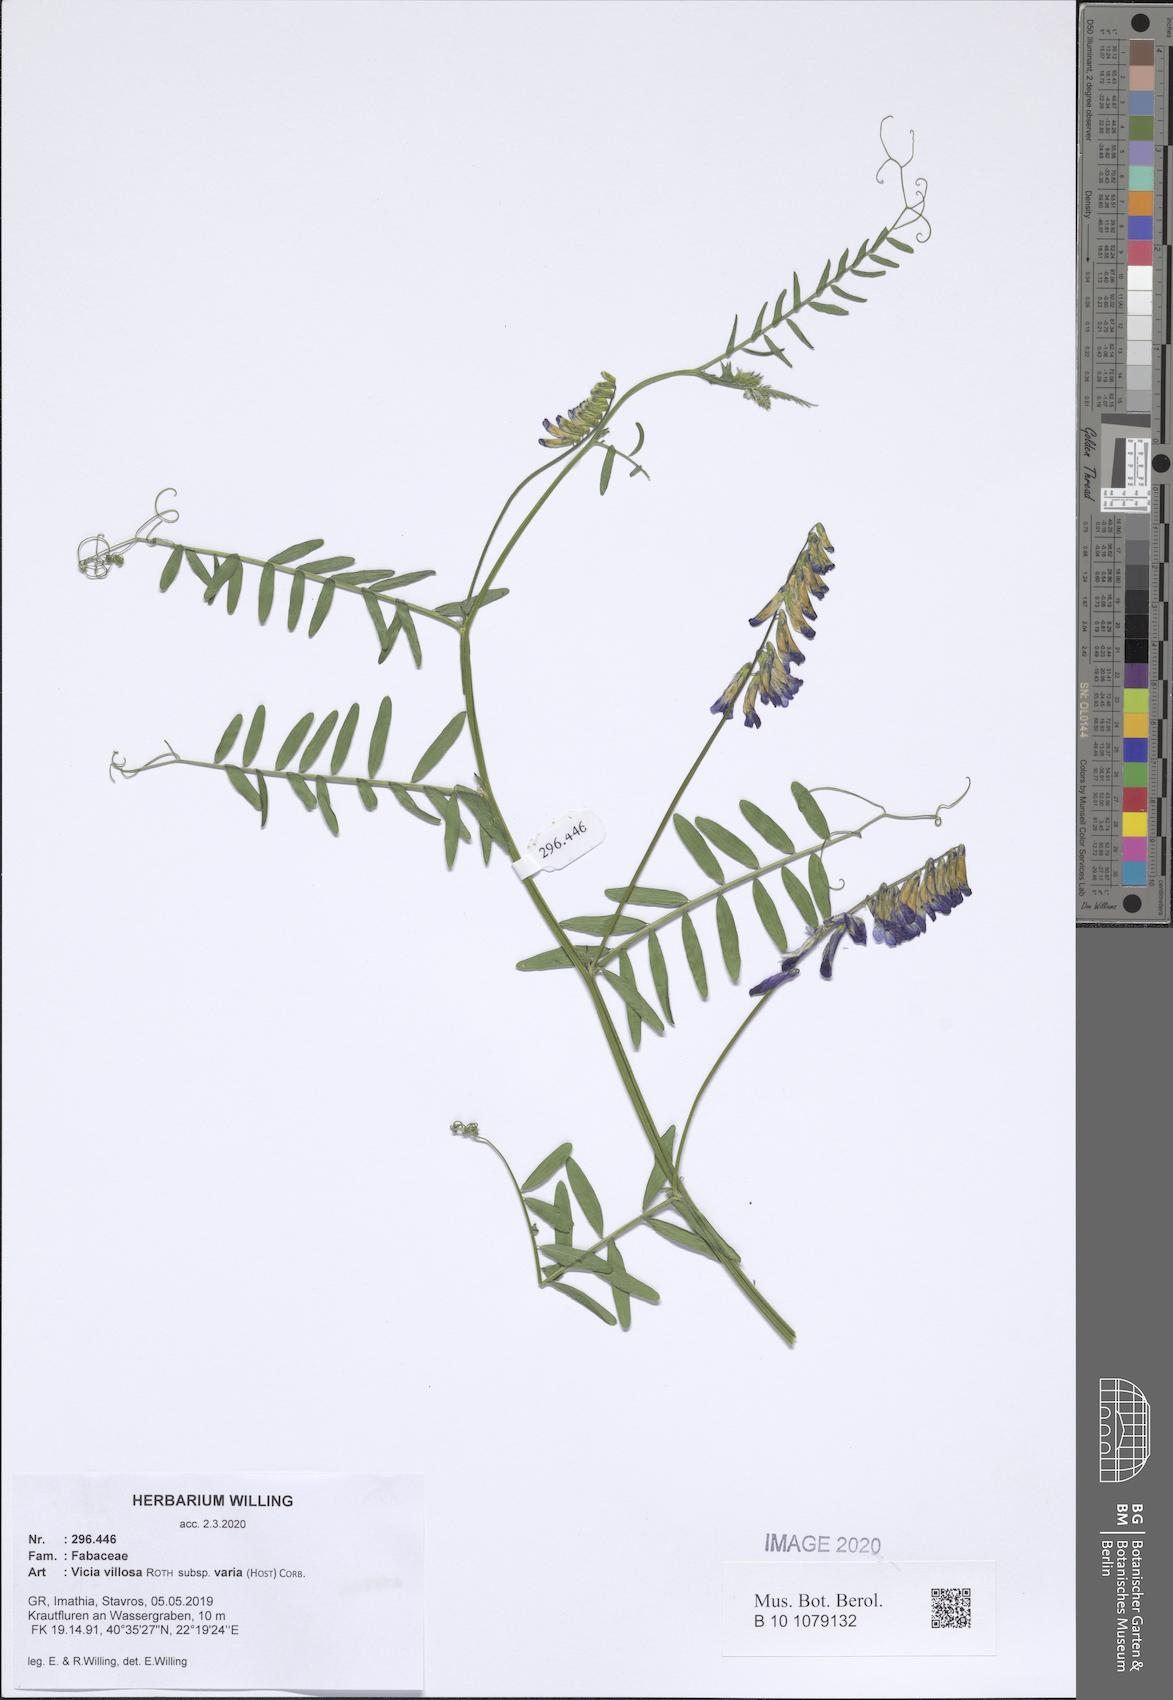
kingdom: Plantae
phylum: Tracheophyta
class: Magnoliopsida
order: Fabales
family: Fabaceae
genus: Vicia
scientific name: Vicia villosa
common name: Fodder vetch
